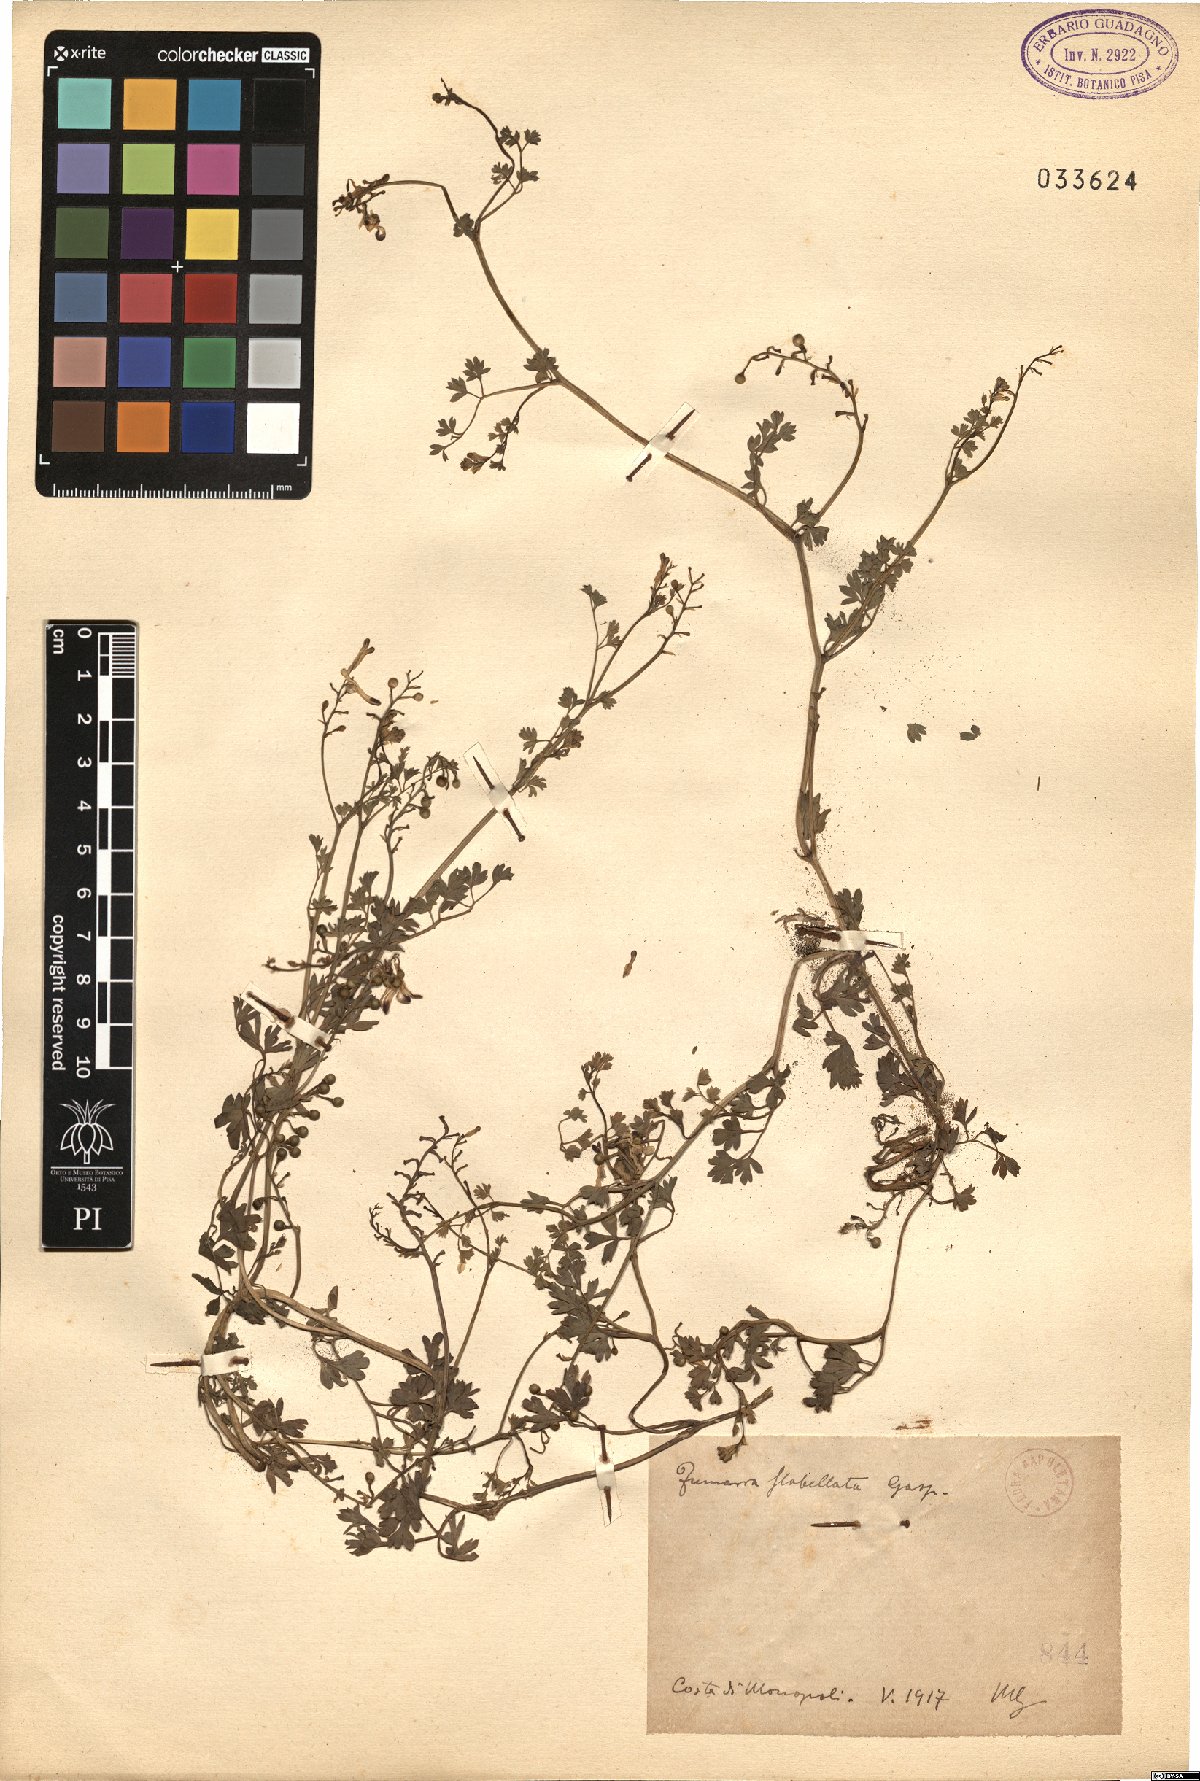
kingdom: Plantae
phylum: Tracheophyta
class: Magnoliopsida
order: Ranunculales
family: Papaveraceae
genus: Fumaria
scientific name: Fumaria flabellata
